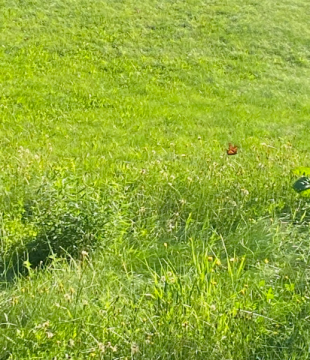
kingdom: Animalia
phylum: Arthropoda
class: Insecta
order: Lepidoptera
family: Nymphalidae
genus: Danaus
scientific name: Danaus plexippus
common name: Monarch
